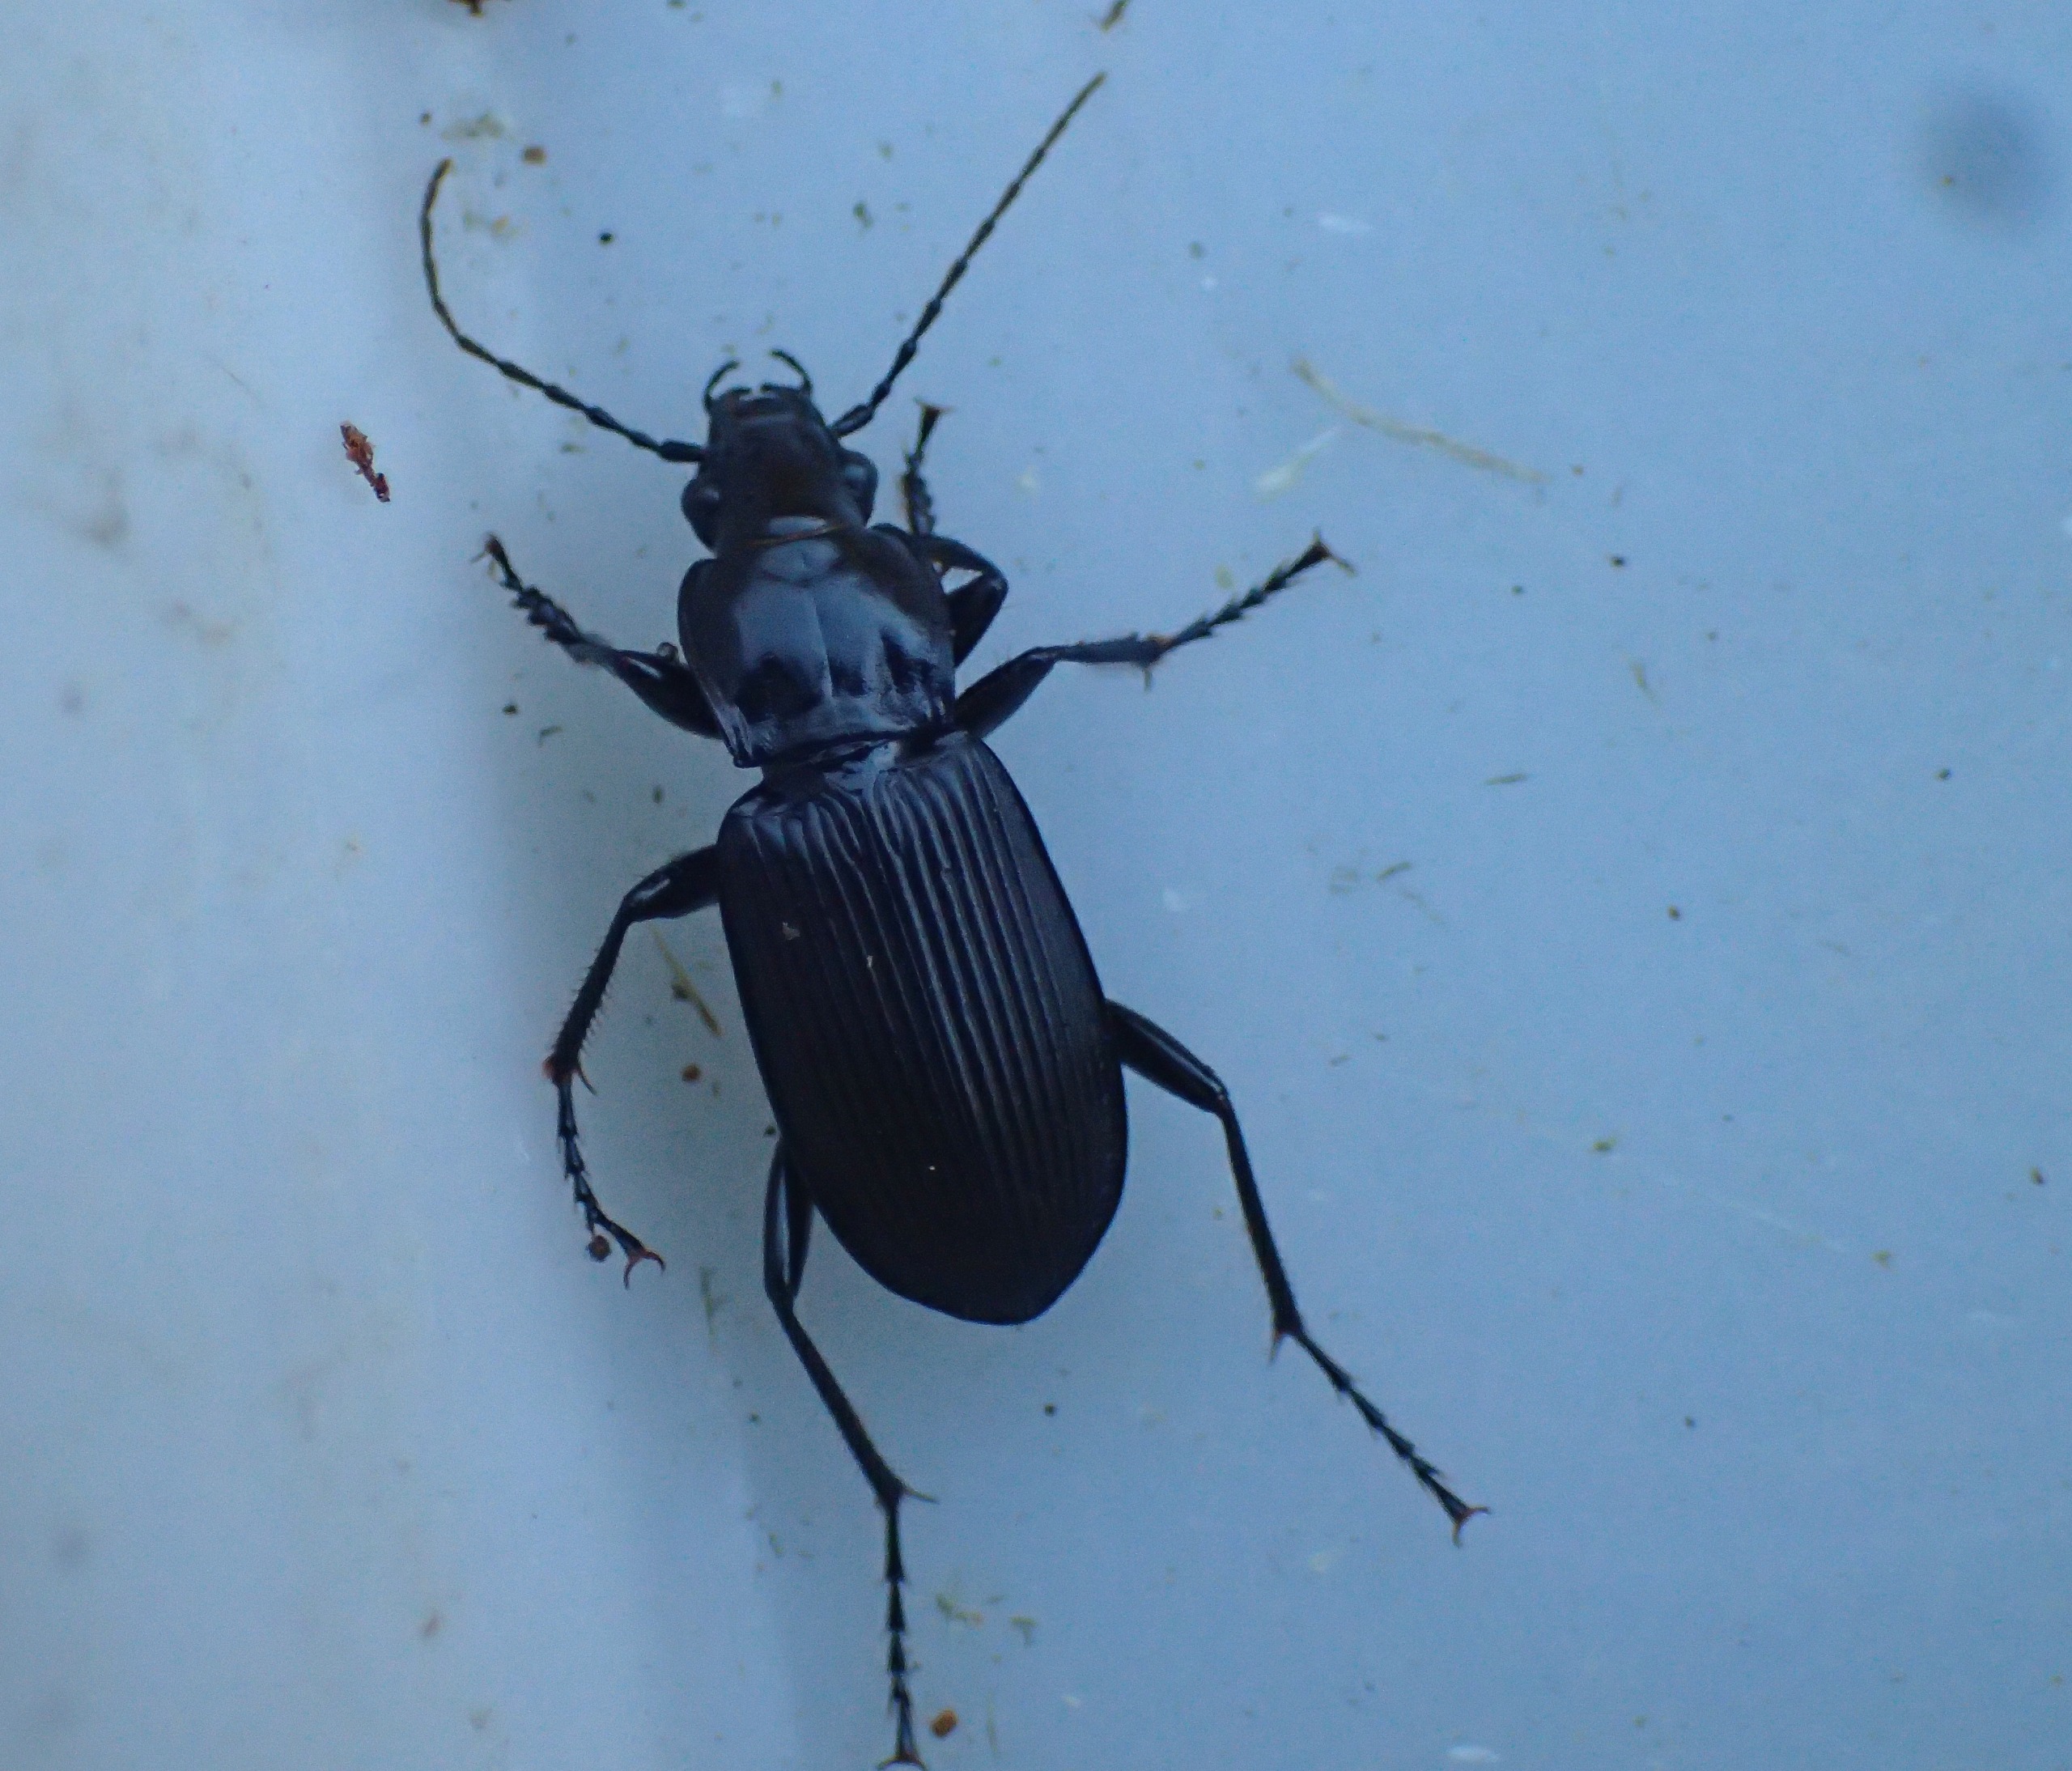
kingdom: Animalia
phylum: Arthropoda
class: Insecta
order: Coleoptera
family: Carabidae
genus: Pterostichus
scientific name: Pterostichus niger
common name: Skovjordløber
